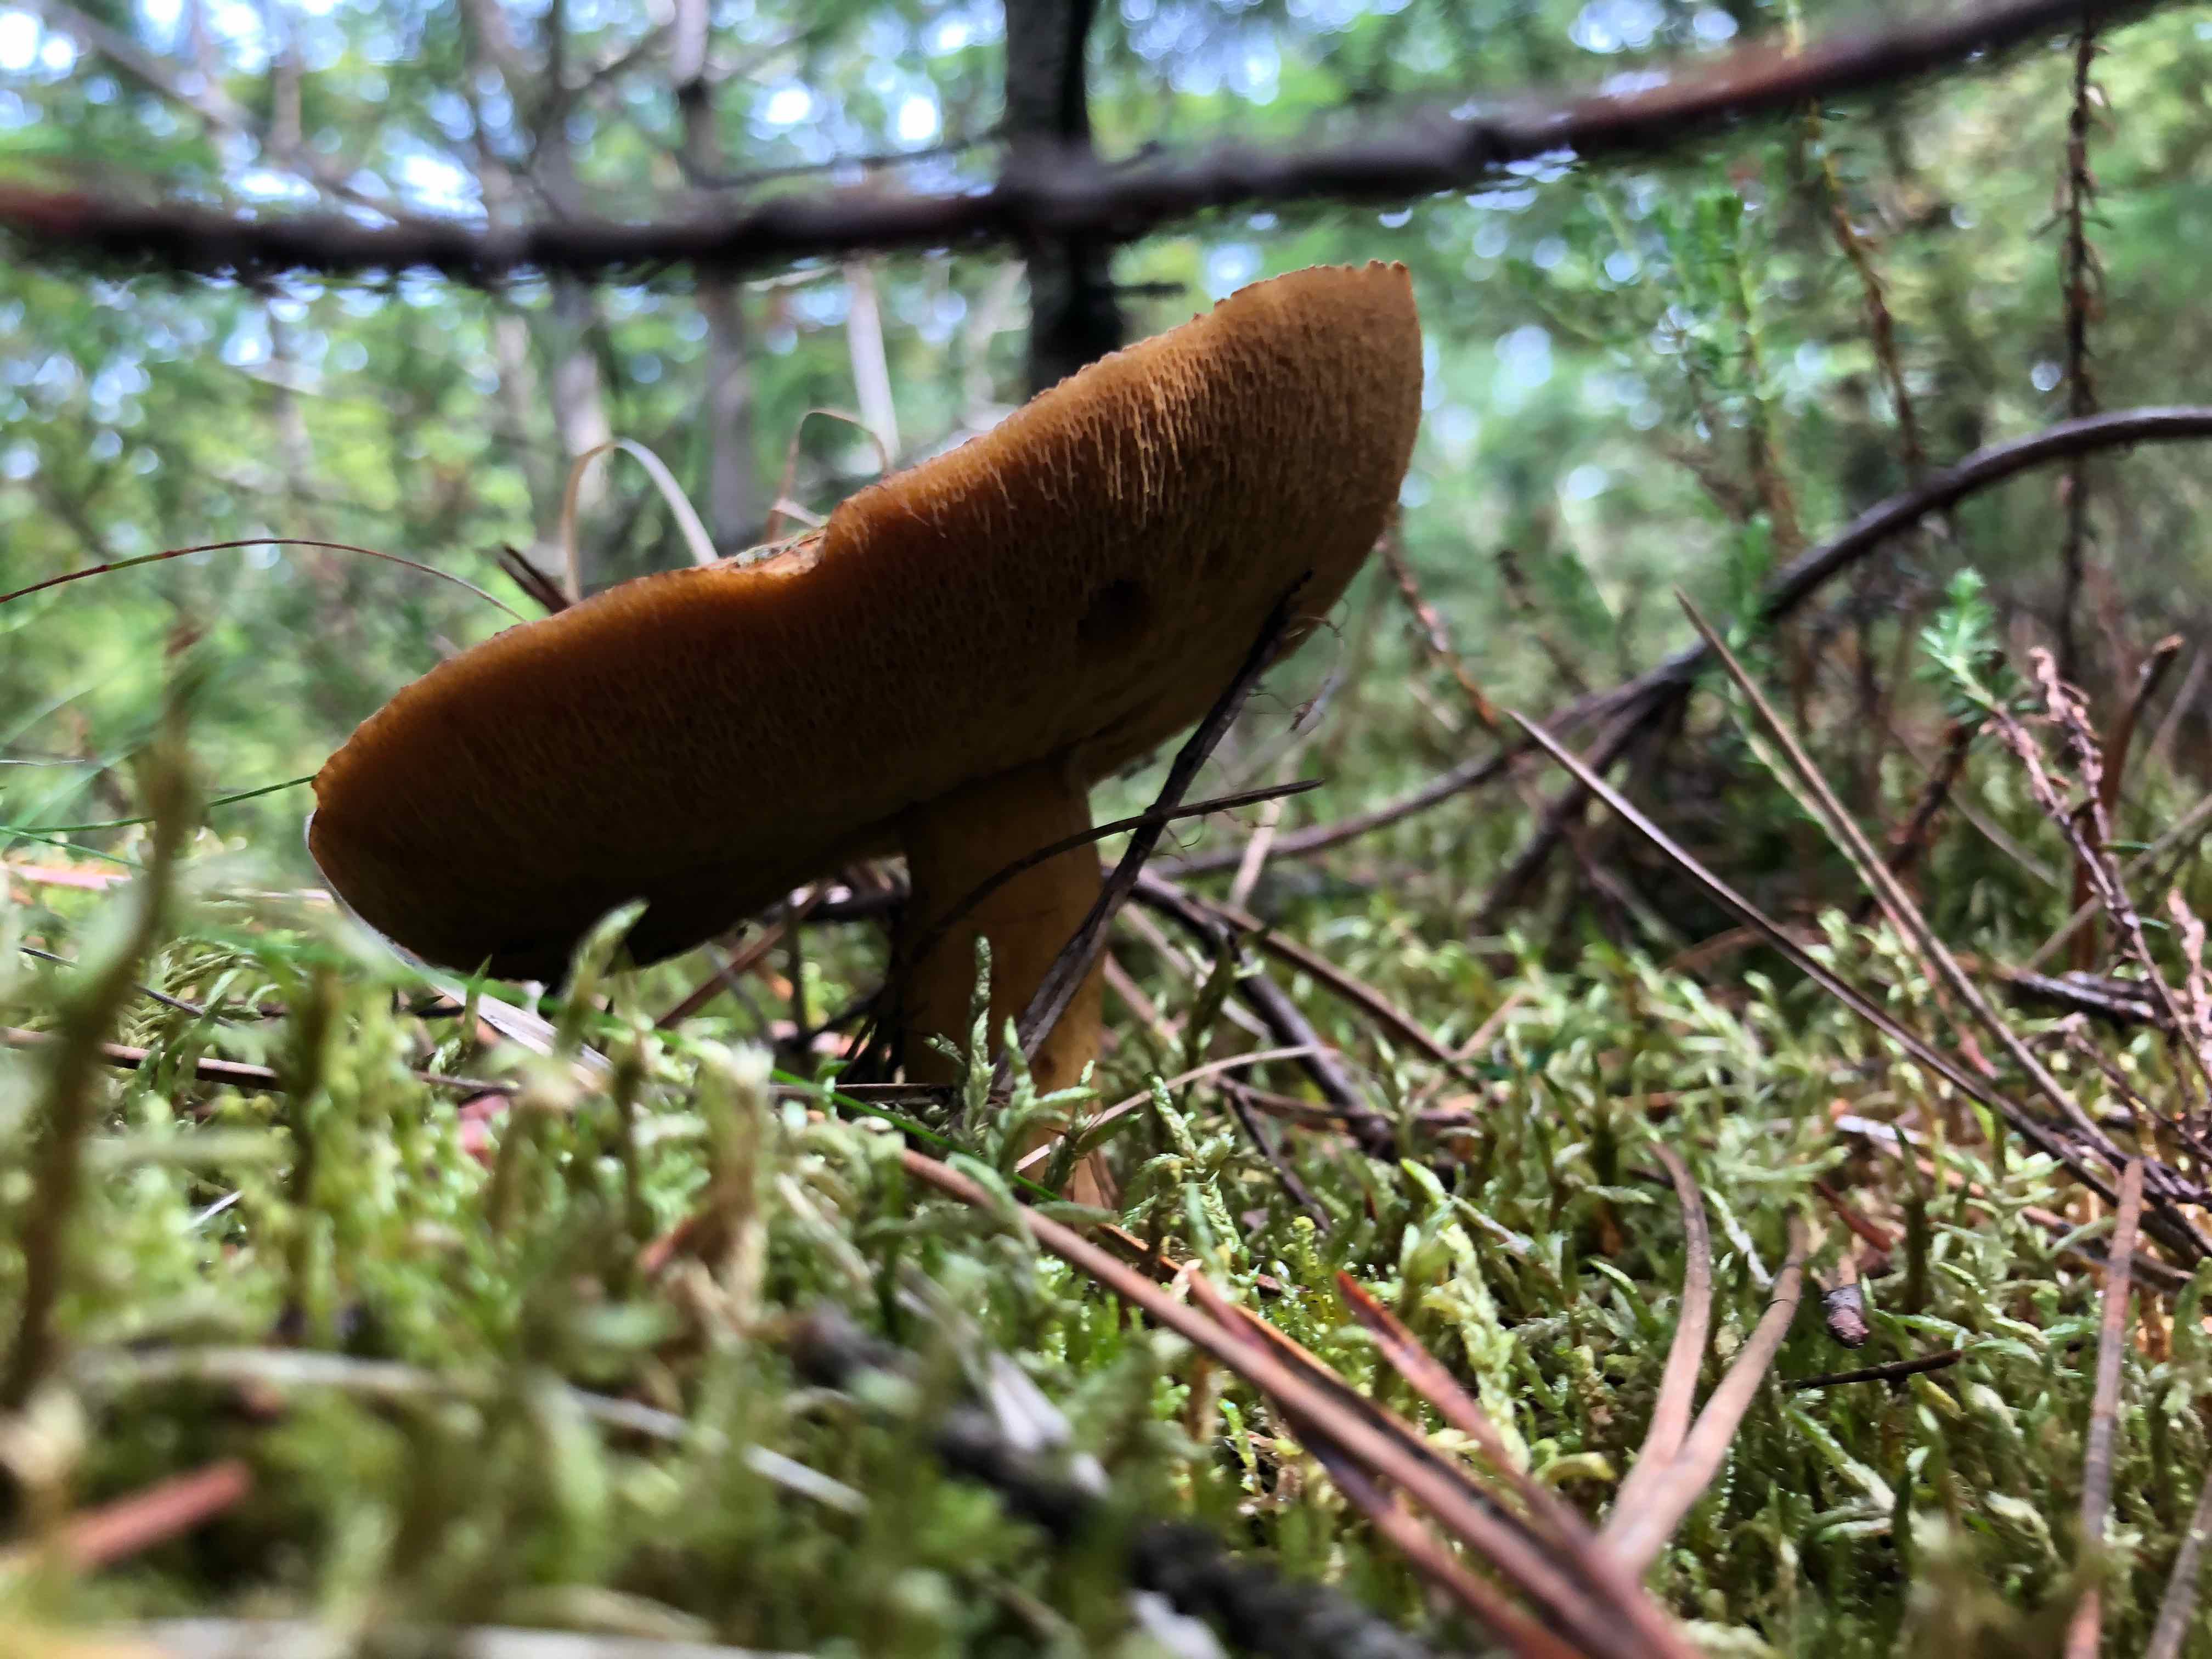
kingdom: Fungi
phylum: Basidiomycota
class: Agaricomycetes
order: Boletales
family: Suillaceae
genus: Suillus
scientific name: Suillus variegatus
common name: broget slimrørhat
